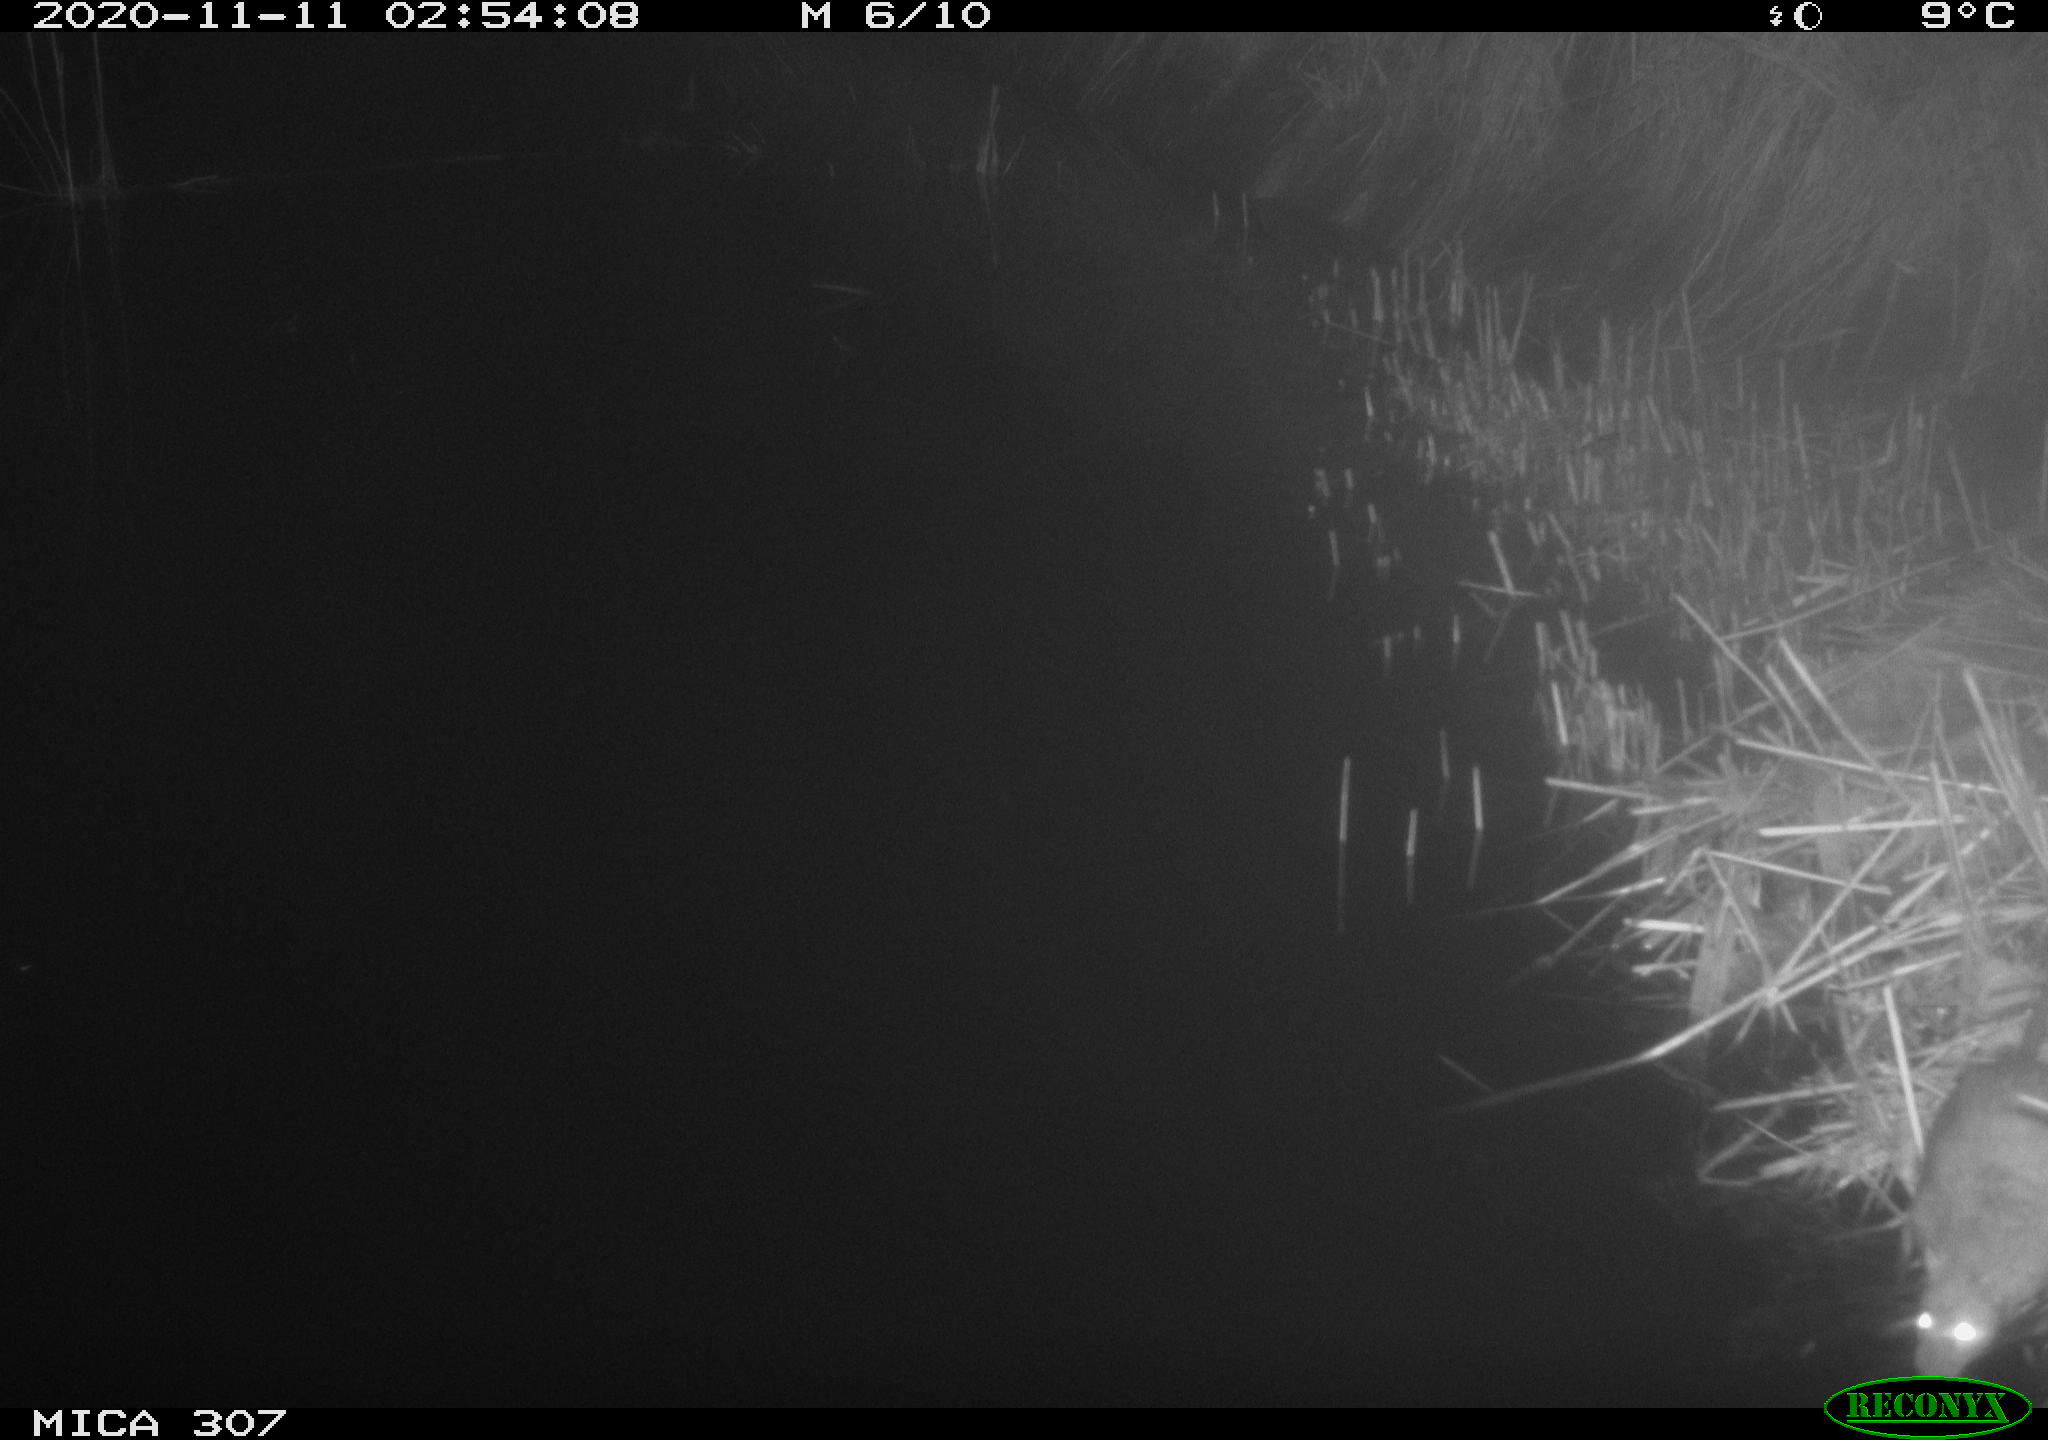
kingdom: Animalia
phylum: Chordata
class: Mammalia
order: Rodentia
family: Muridae
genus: Rattus
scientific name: Rattus norvegicus
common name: Brown rat
